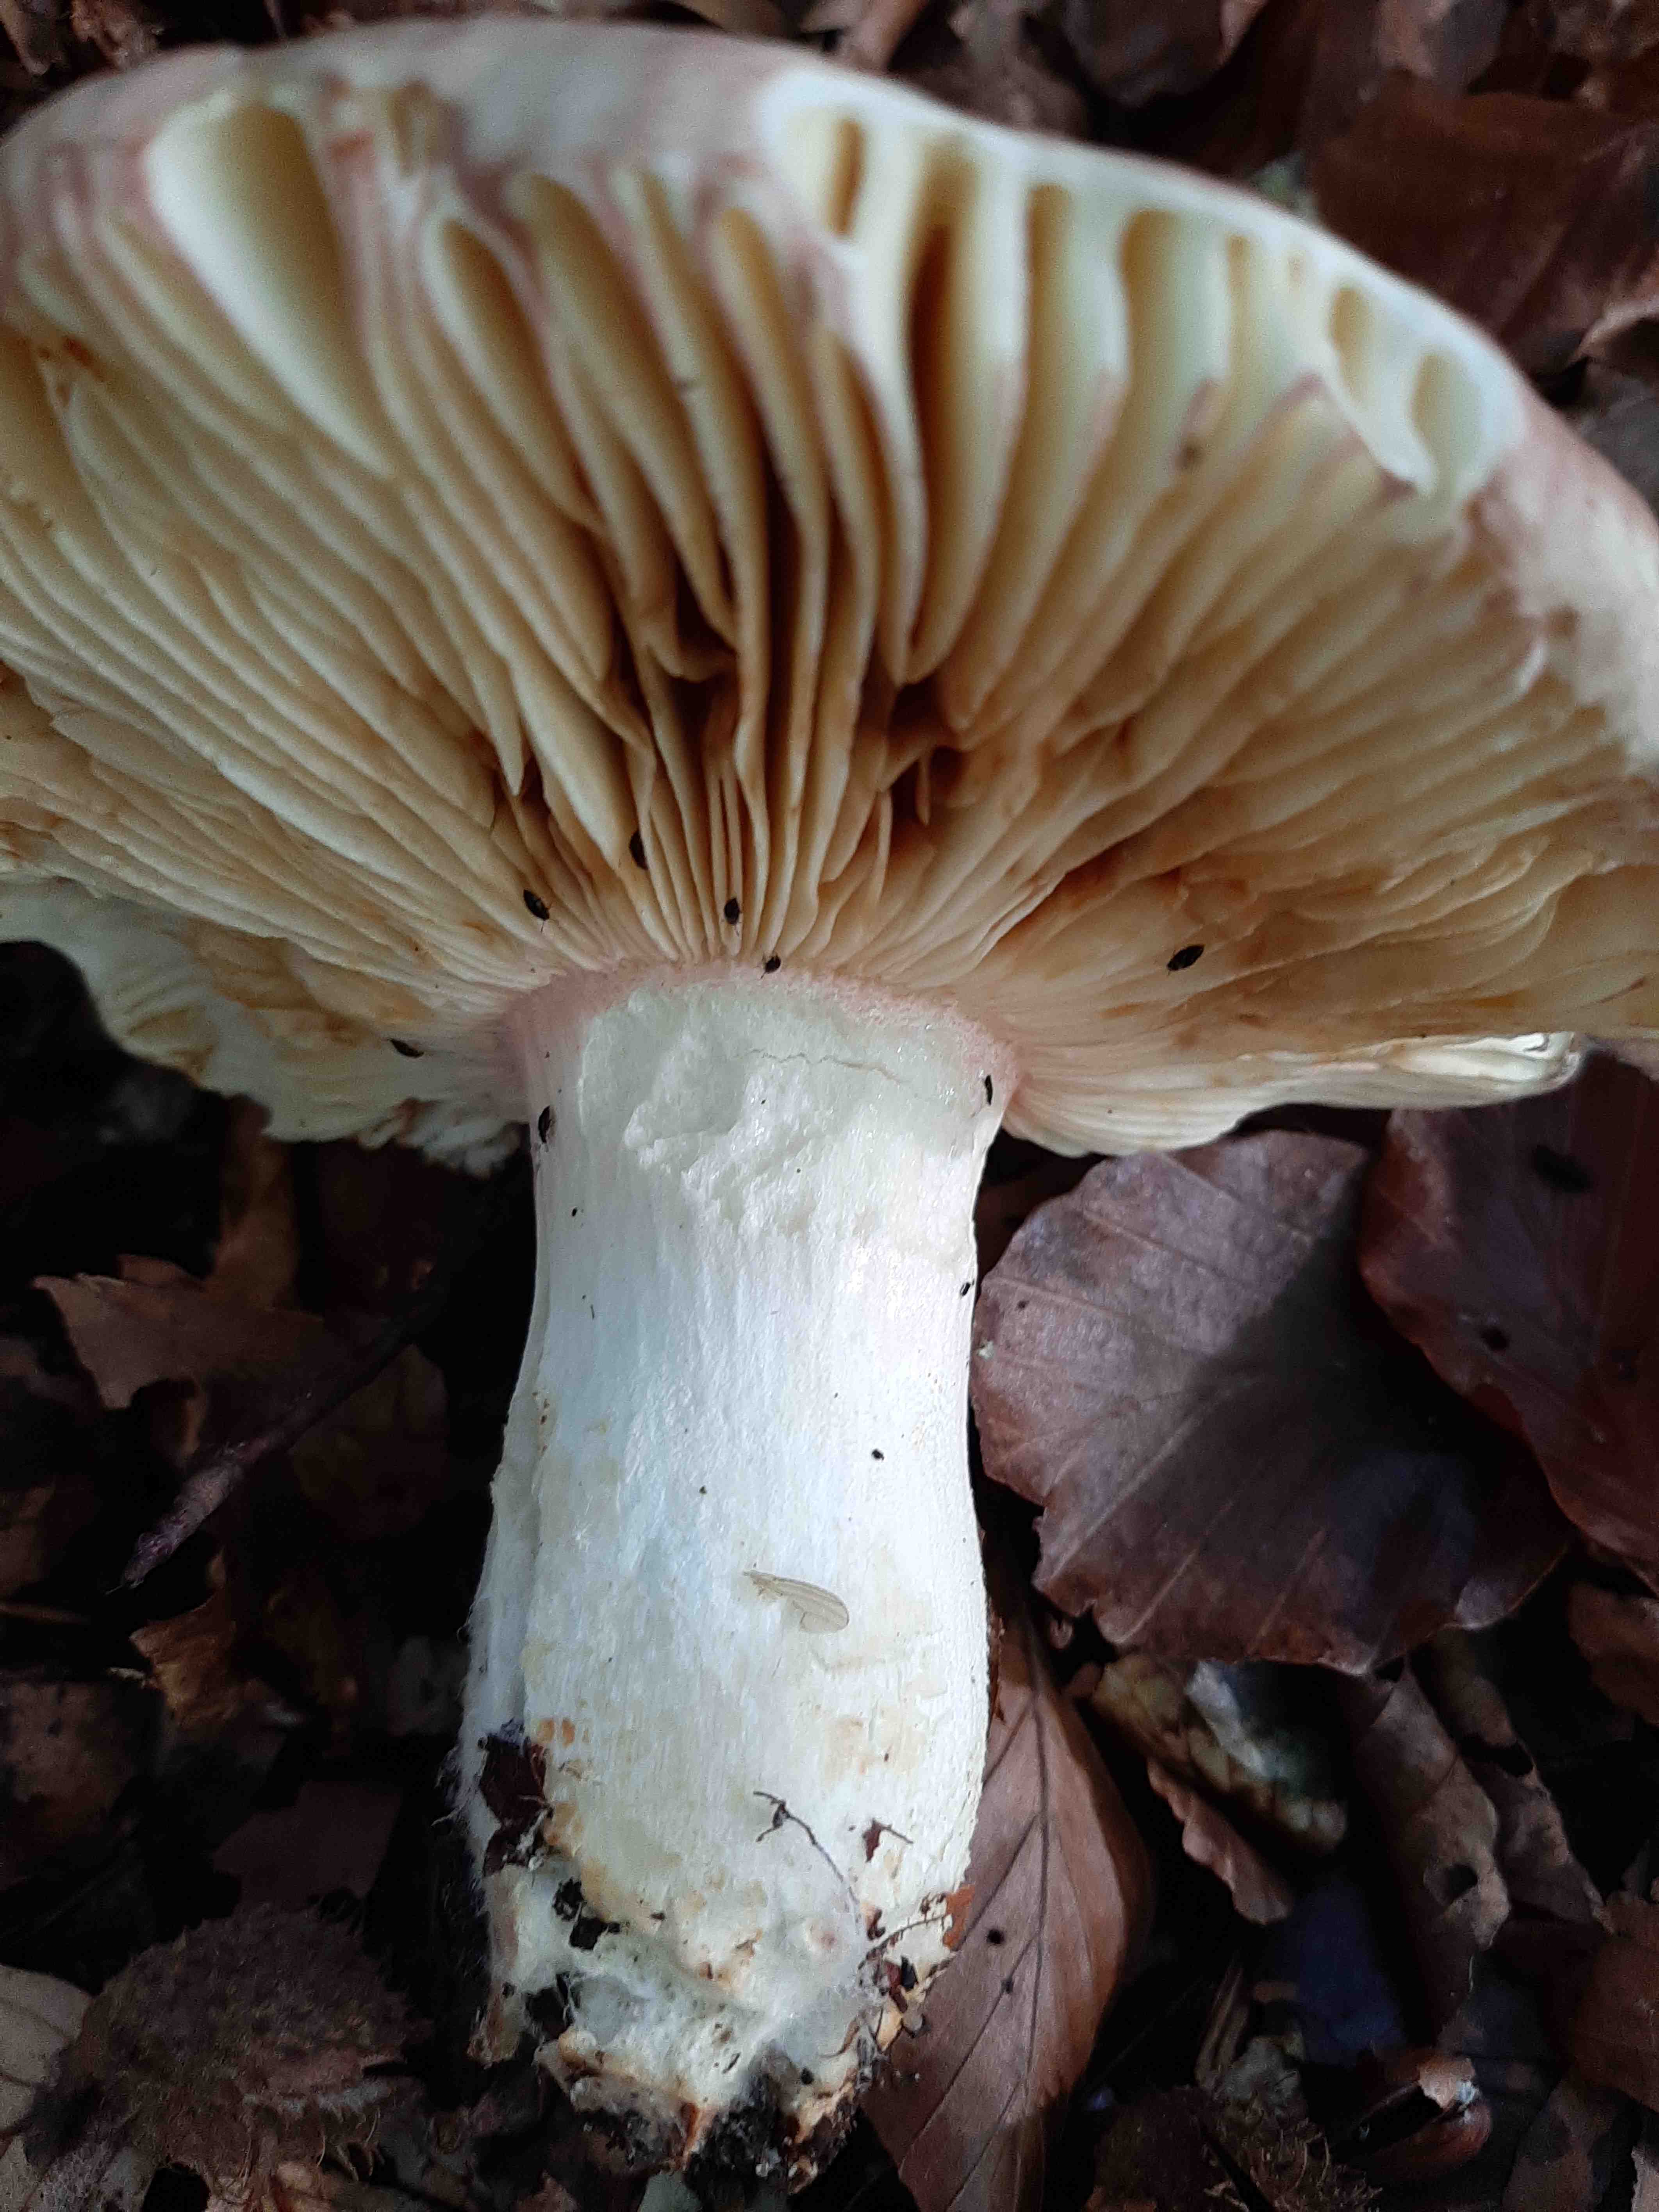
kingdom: Fungi
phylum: Basidiomycota
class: Agaricomycetes
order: Russulales
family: Russulaceae
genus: Russula
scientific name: Russula olivacea
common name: stor skørhat
